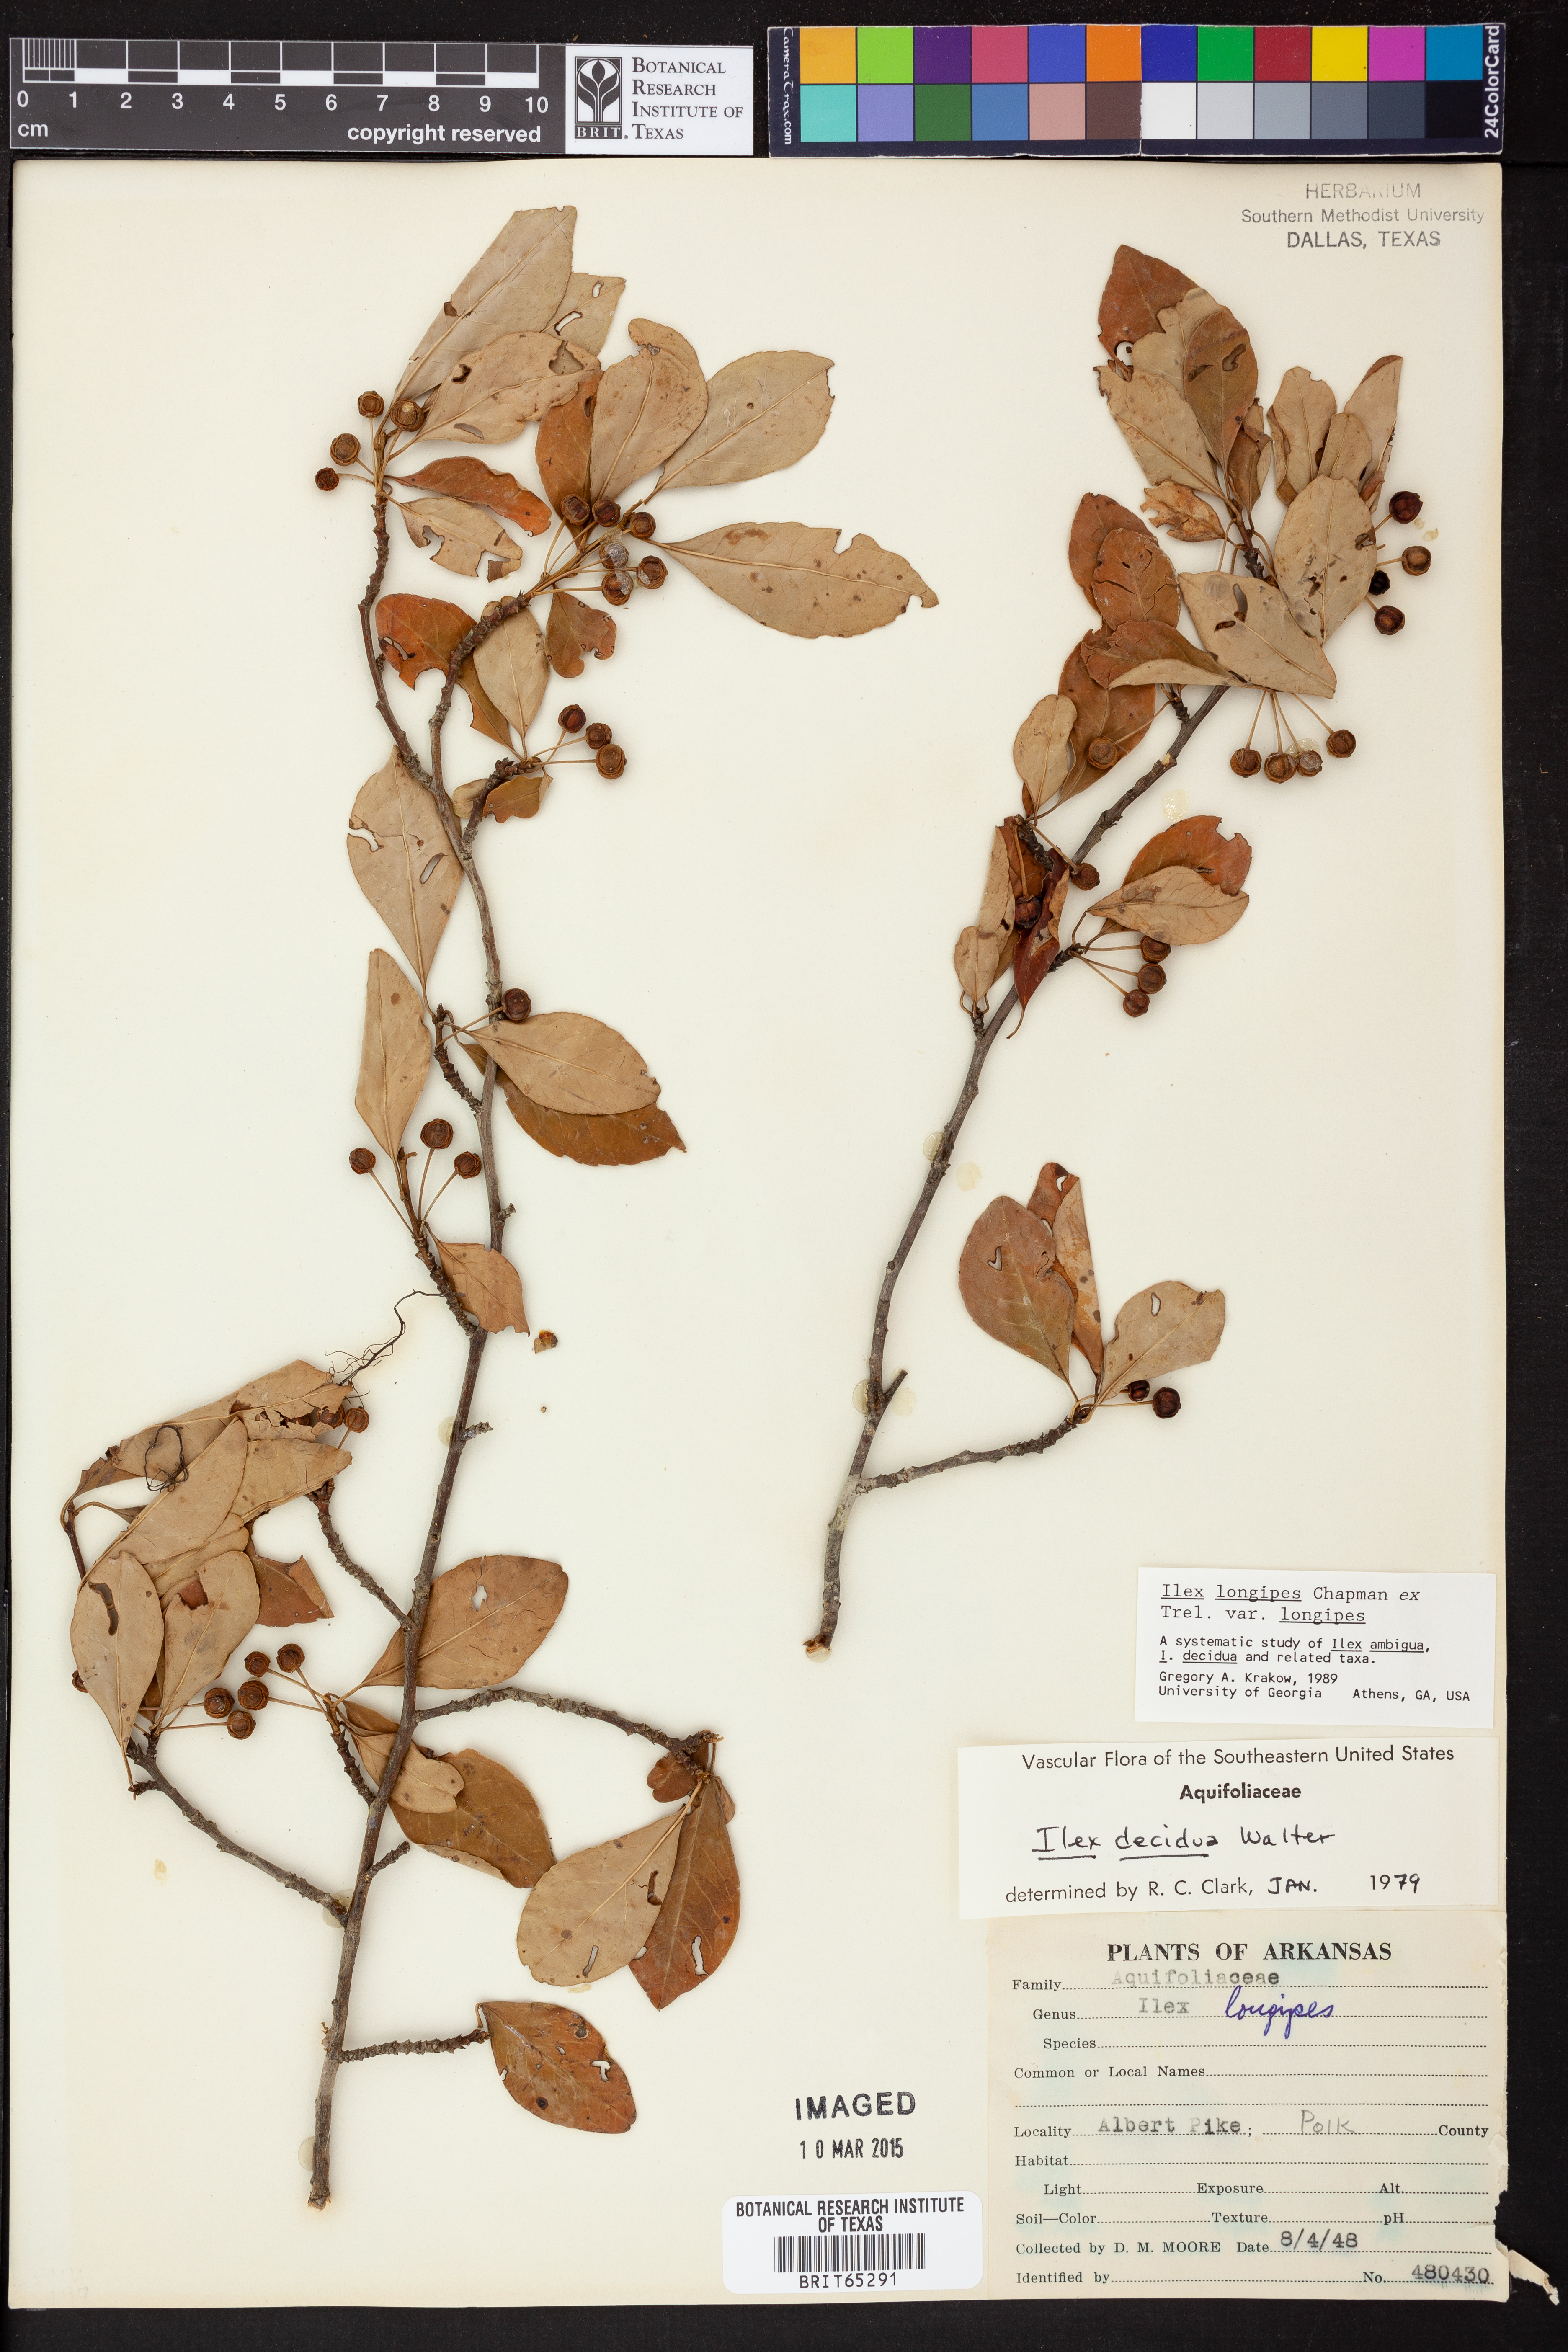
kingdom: Plantae
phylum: Tracheophyta
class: Magnoliopsida
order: Aquifoliales
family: Aquifoliaceae
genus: Ilex
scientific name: Ilex longipes
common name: Georgia holly
